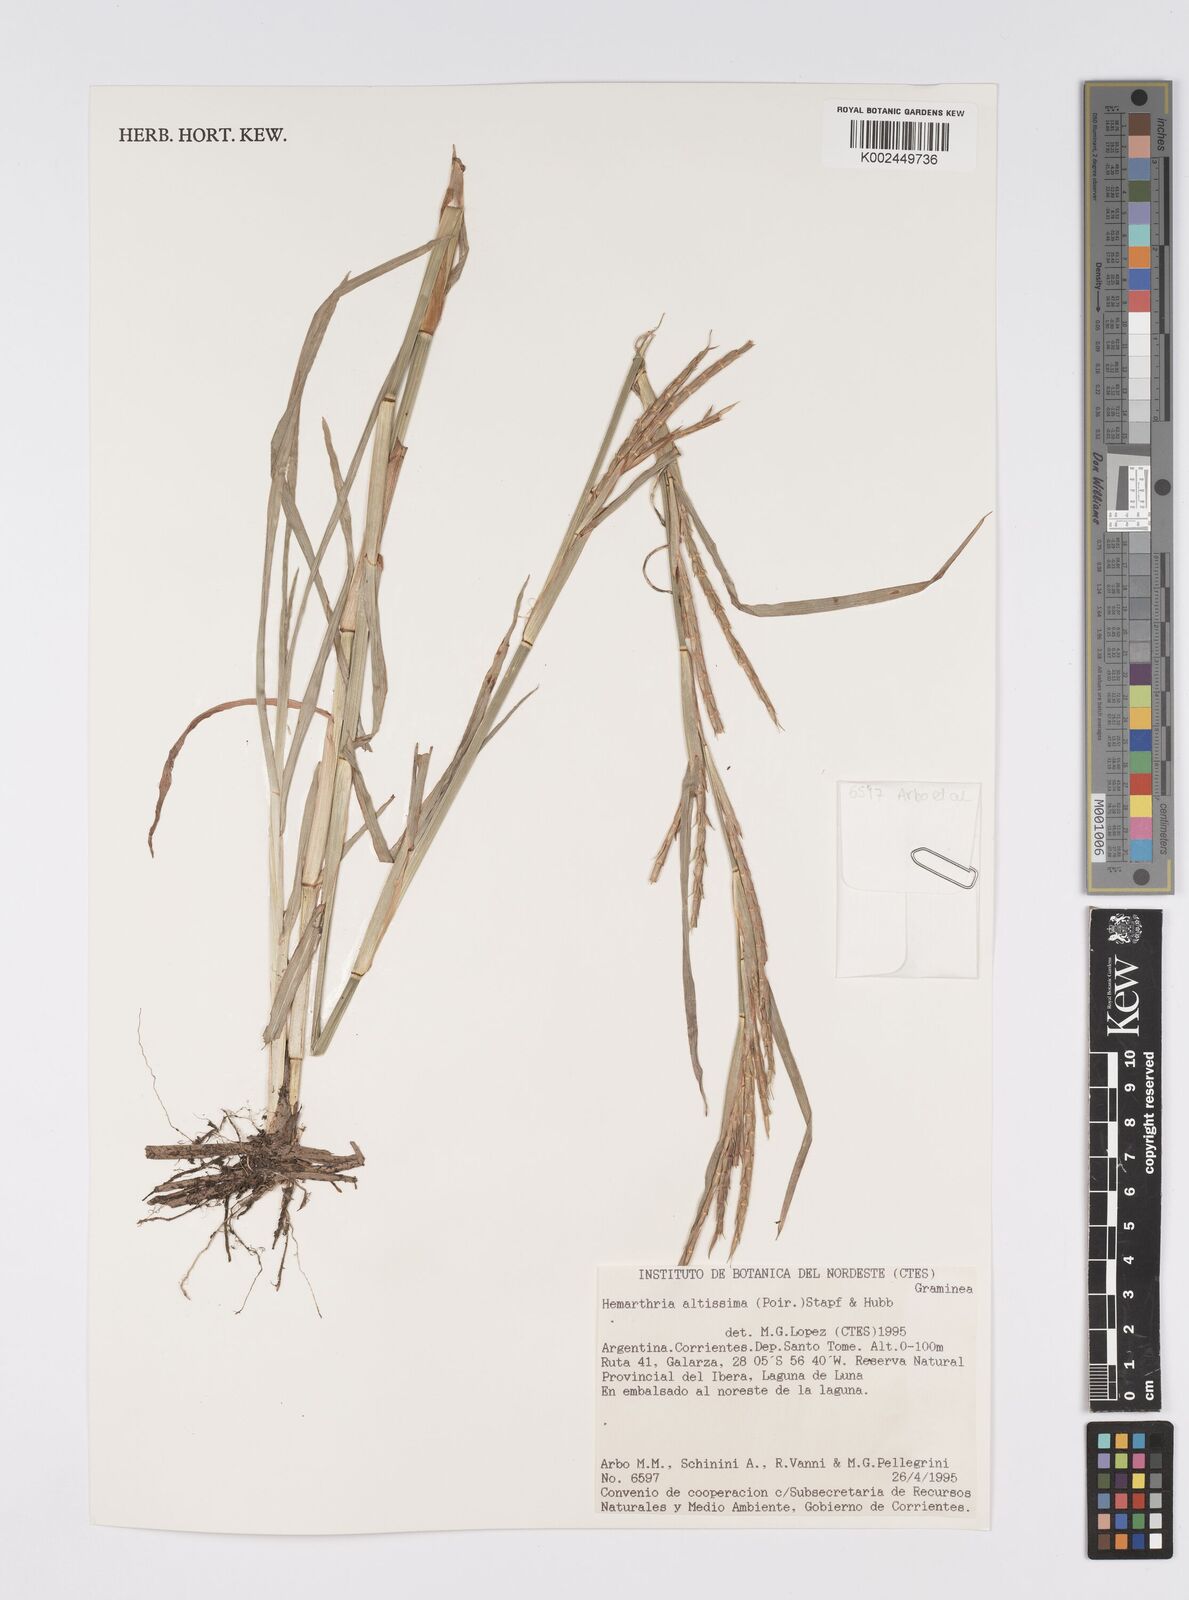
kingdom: Plantae
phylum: Tracheophyta
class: Liliopsida
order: Poales
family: Poaceae
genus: Hemarthria
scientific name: Hemarthria altissima
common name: African jointgrass
